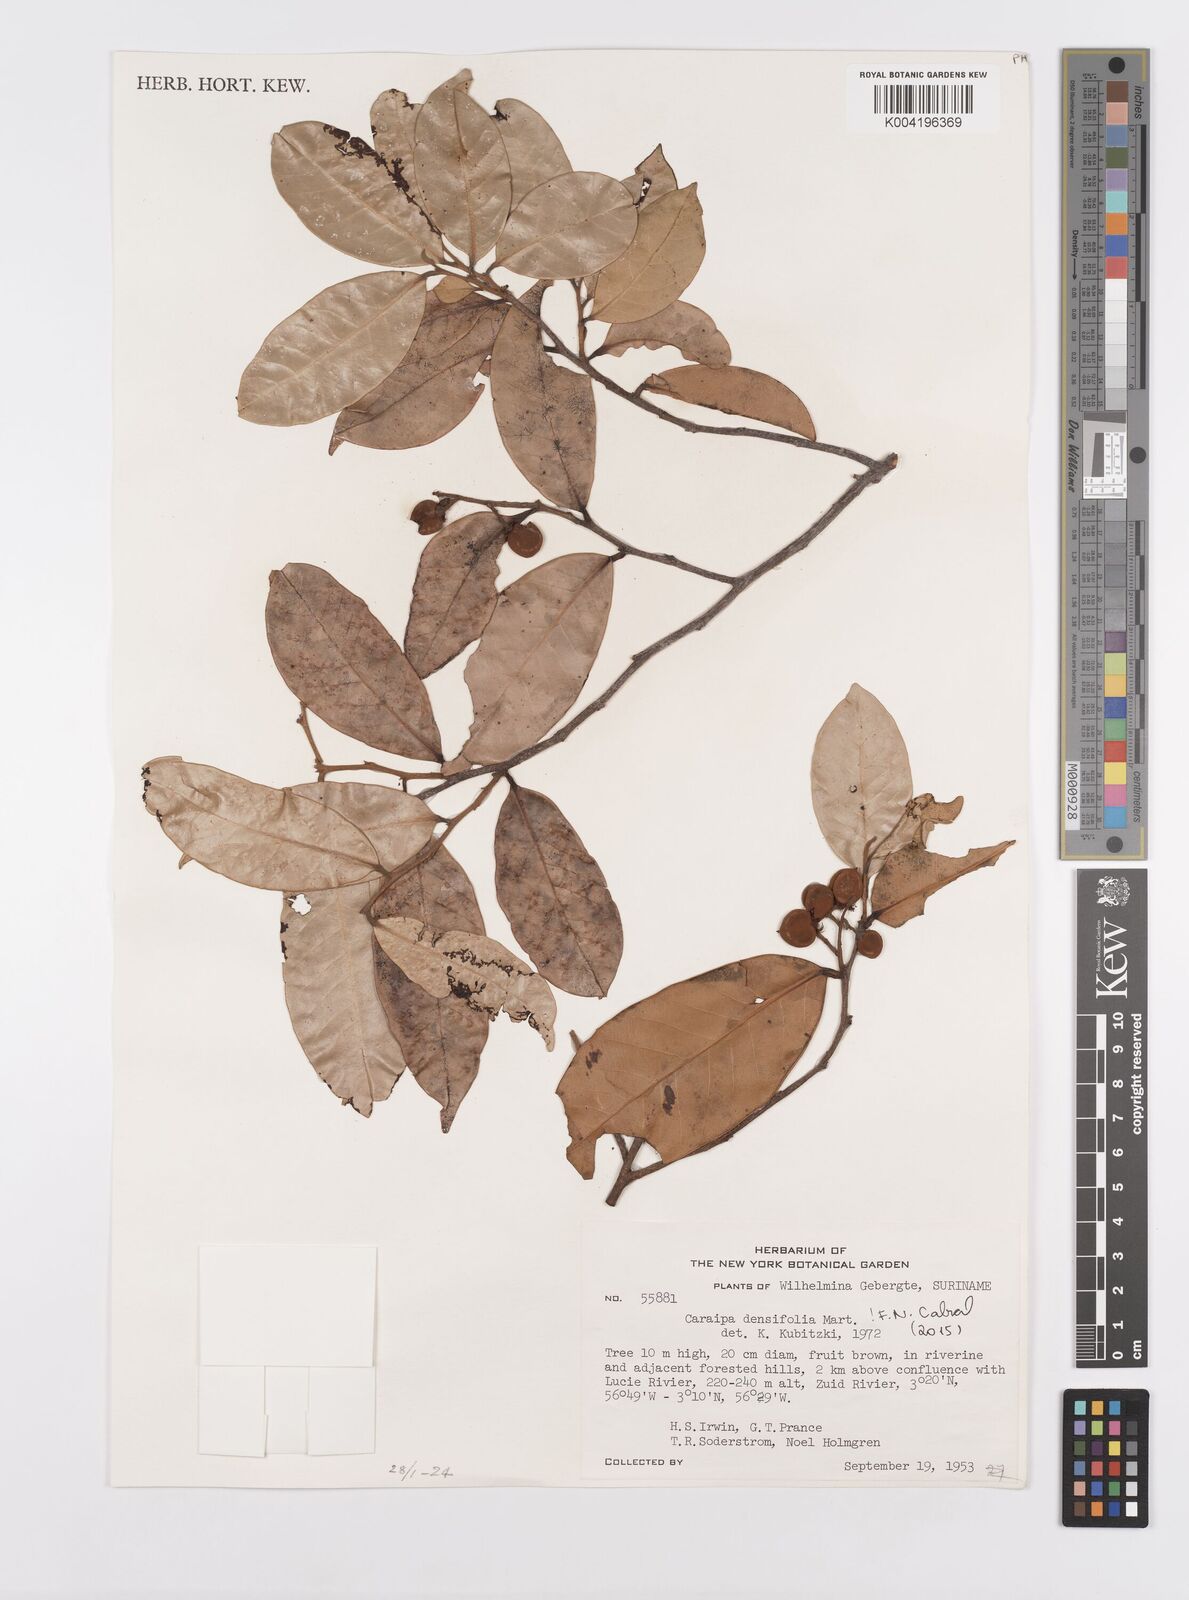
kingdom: Plantae
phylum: Tracheophyta
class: Magnoliopsida
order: Malpighiales
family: Calophyllaceae
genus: Caraipa
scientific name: Caraipa densifolia
